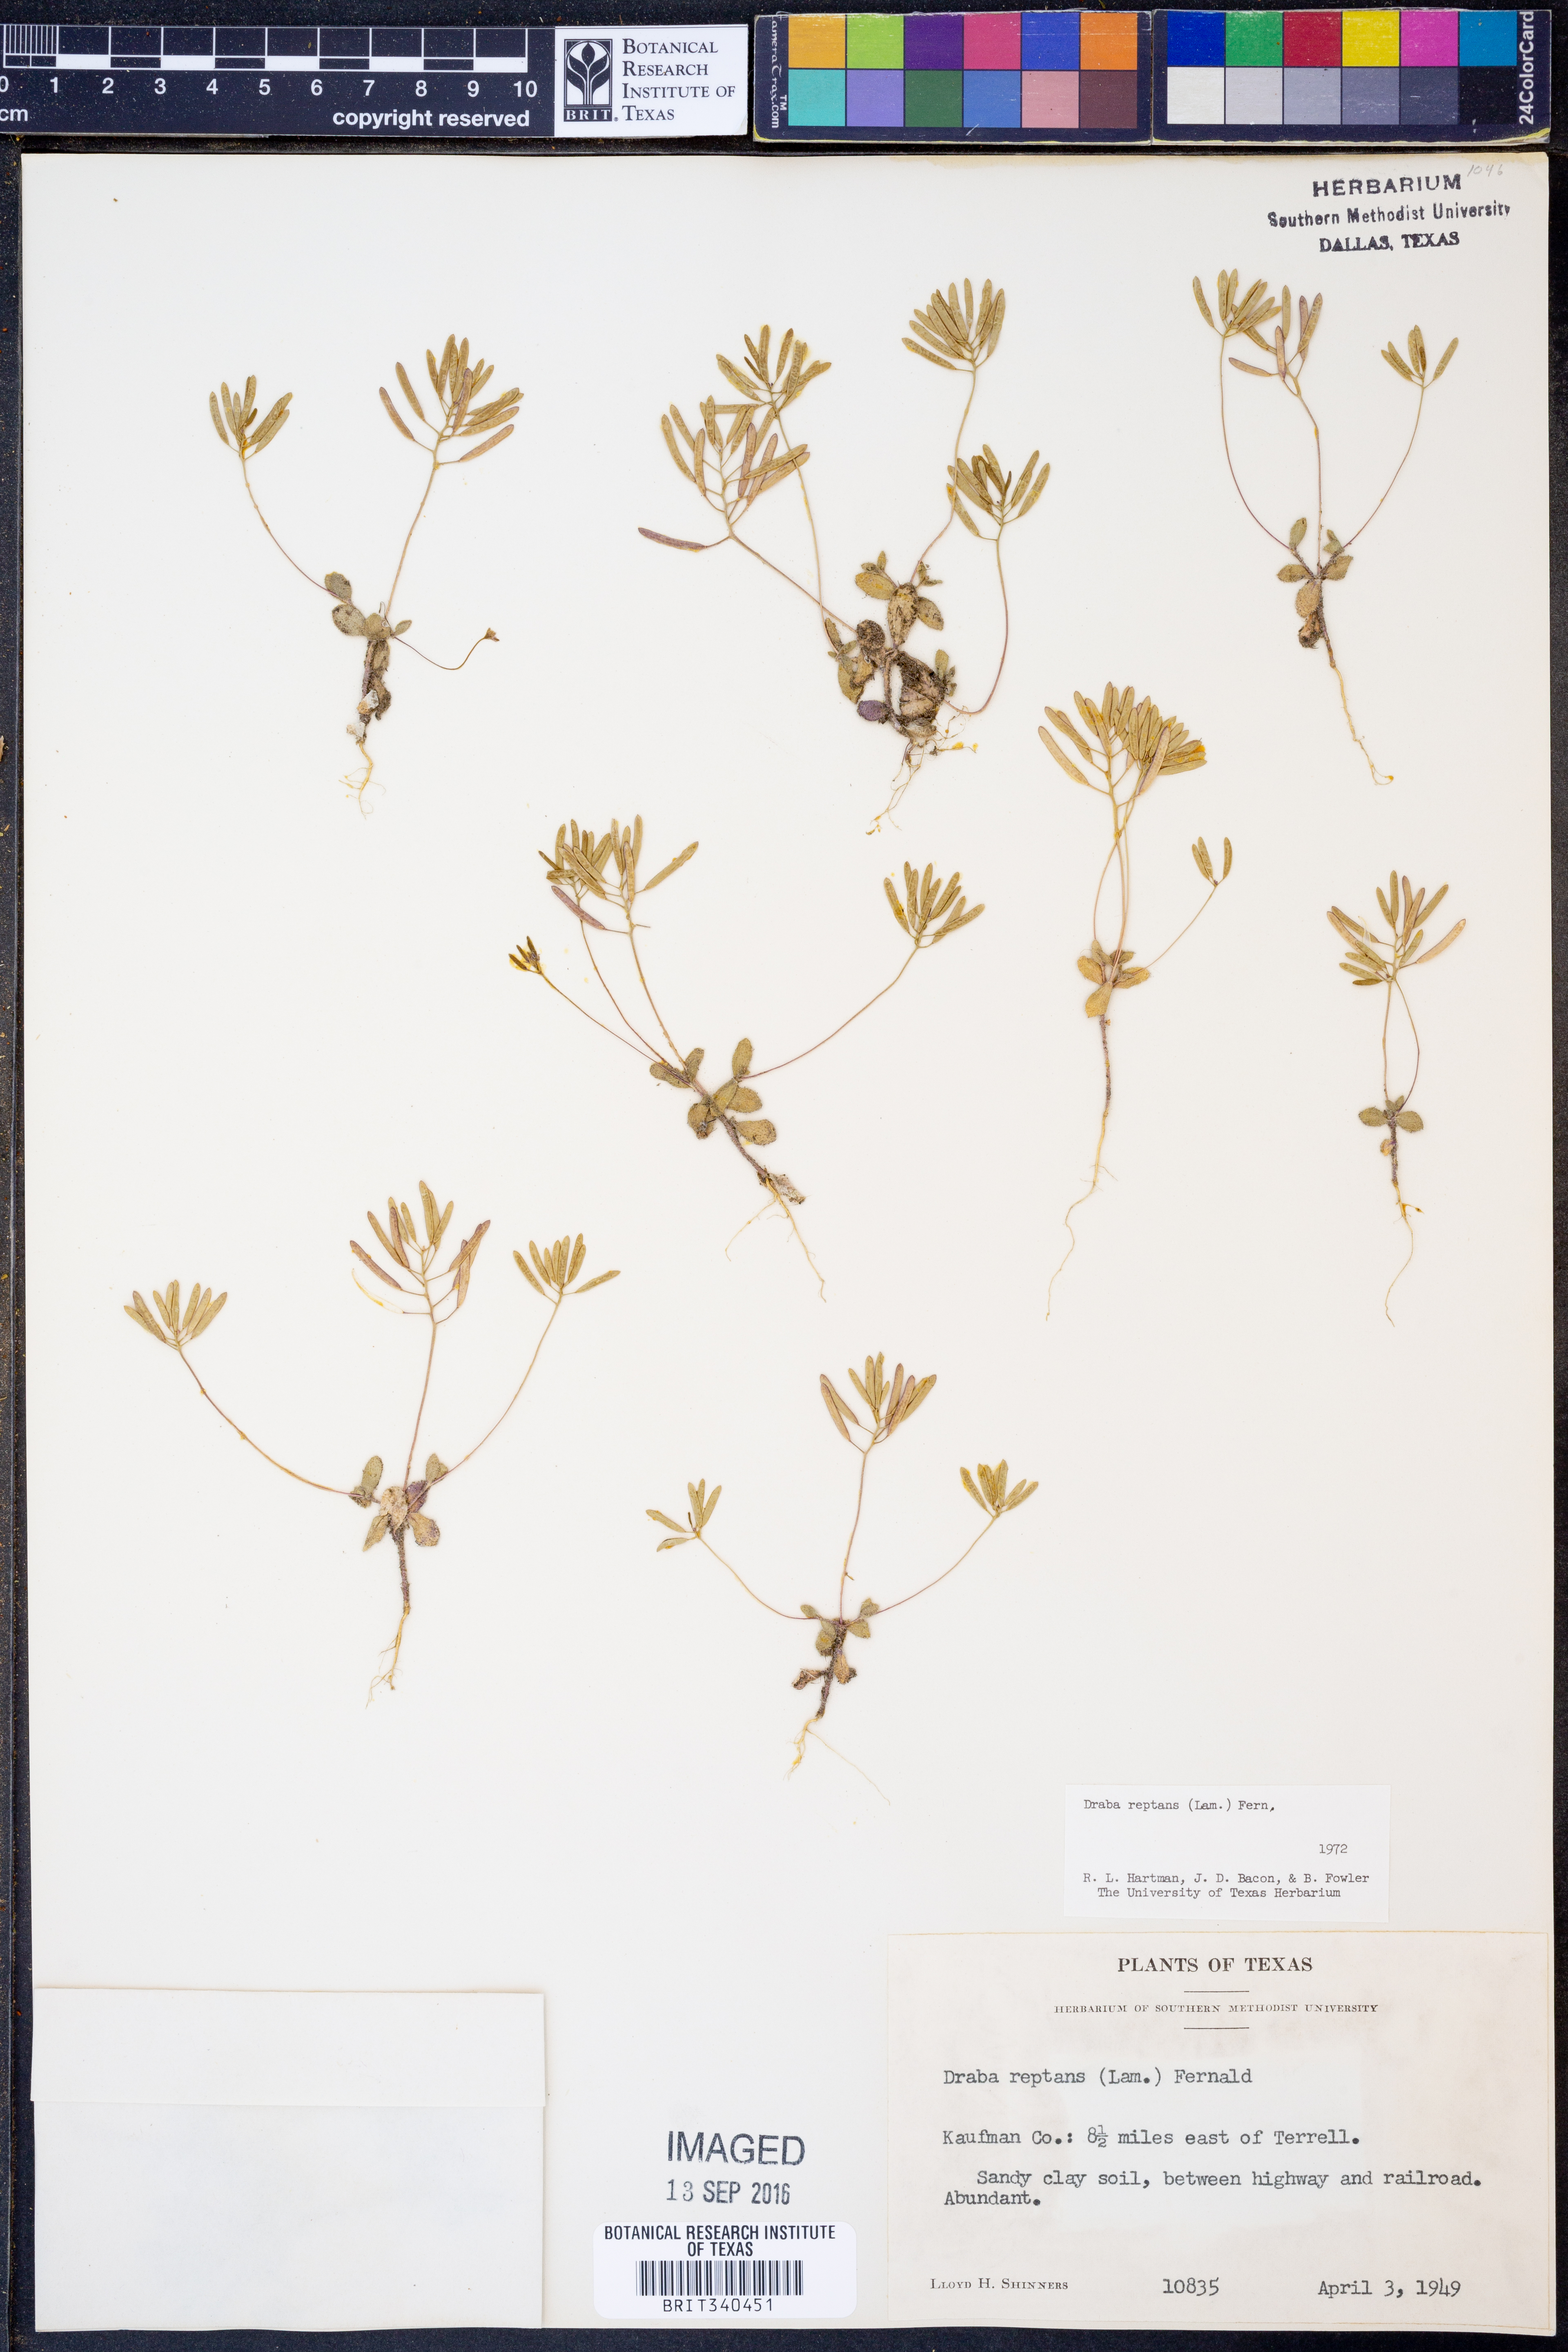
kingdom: Plantae
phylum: Tracheophyta
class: Magnoliopsida
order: Brassicales
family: Brassicaceae
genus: Tomostima
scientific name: Tomostima reptans
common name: Carolina draba
